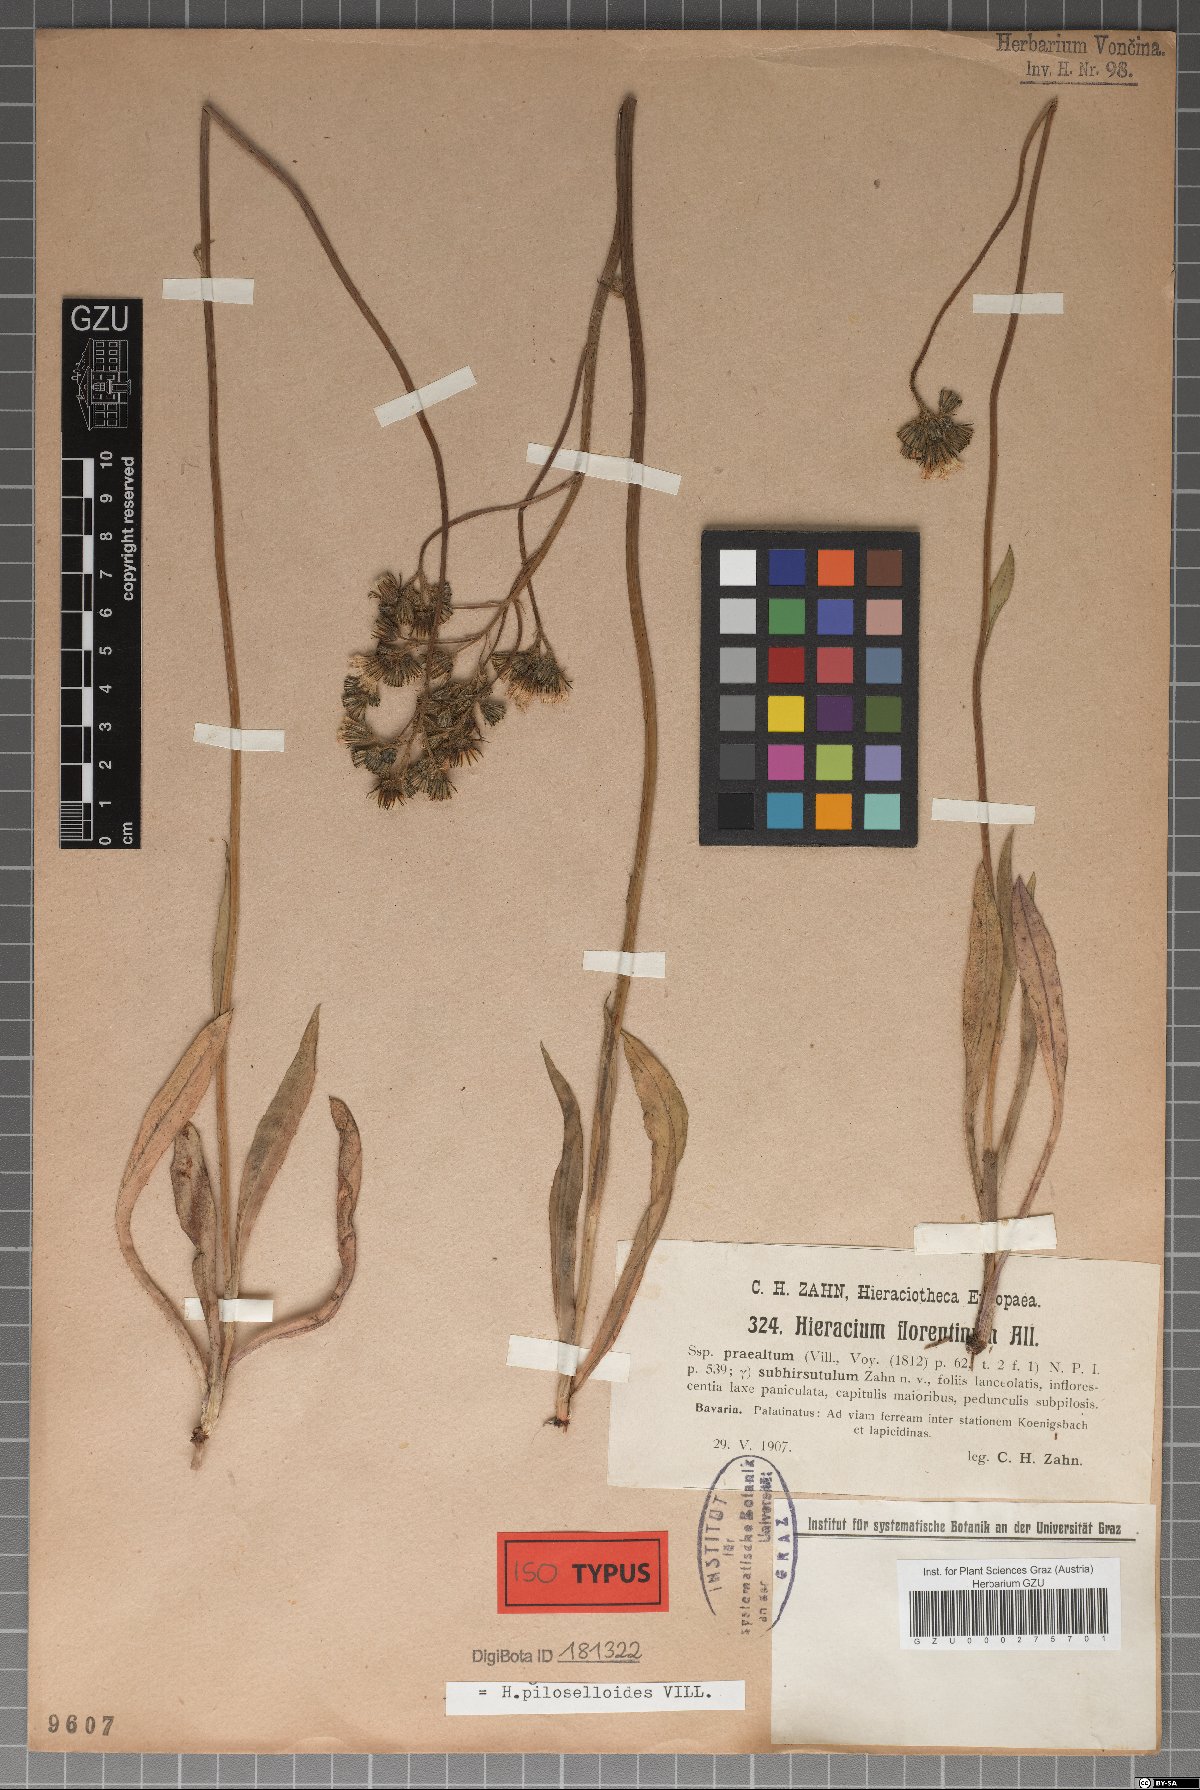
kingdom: Plantae
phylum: Tracheophyta
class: Magnoliopsida
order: Asterales
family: Asteraceae
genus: Pilosella
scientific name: Pilosella piloselloides
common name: Glaucous king-devil
